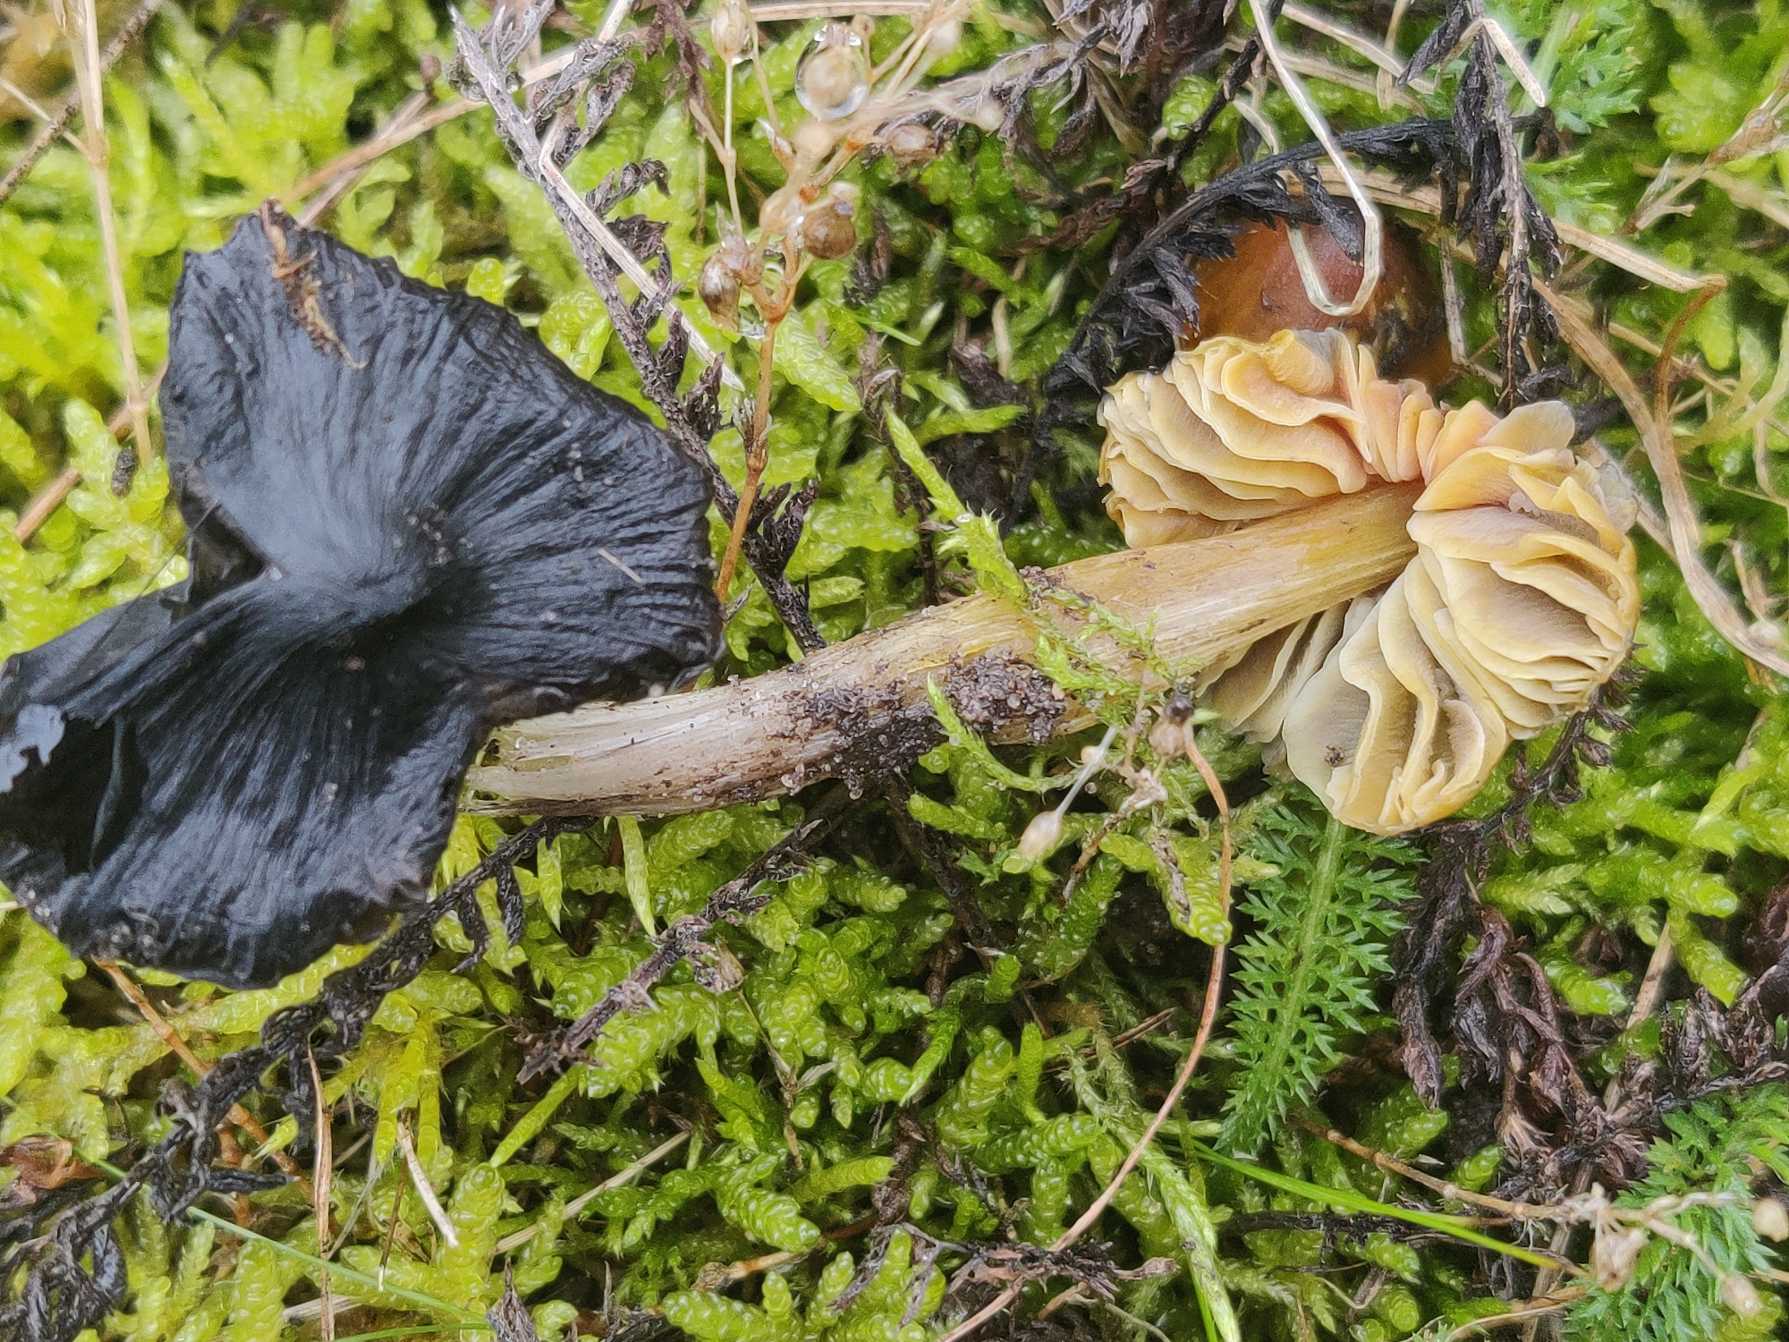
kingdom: Fungi
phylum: Basidiomycota
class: Agaricomycetes
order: Agaricales
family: Hygrophoraceae
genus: Hygrocybe
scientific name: Hygrocybe conica
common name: Kegle-vokshat
